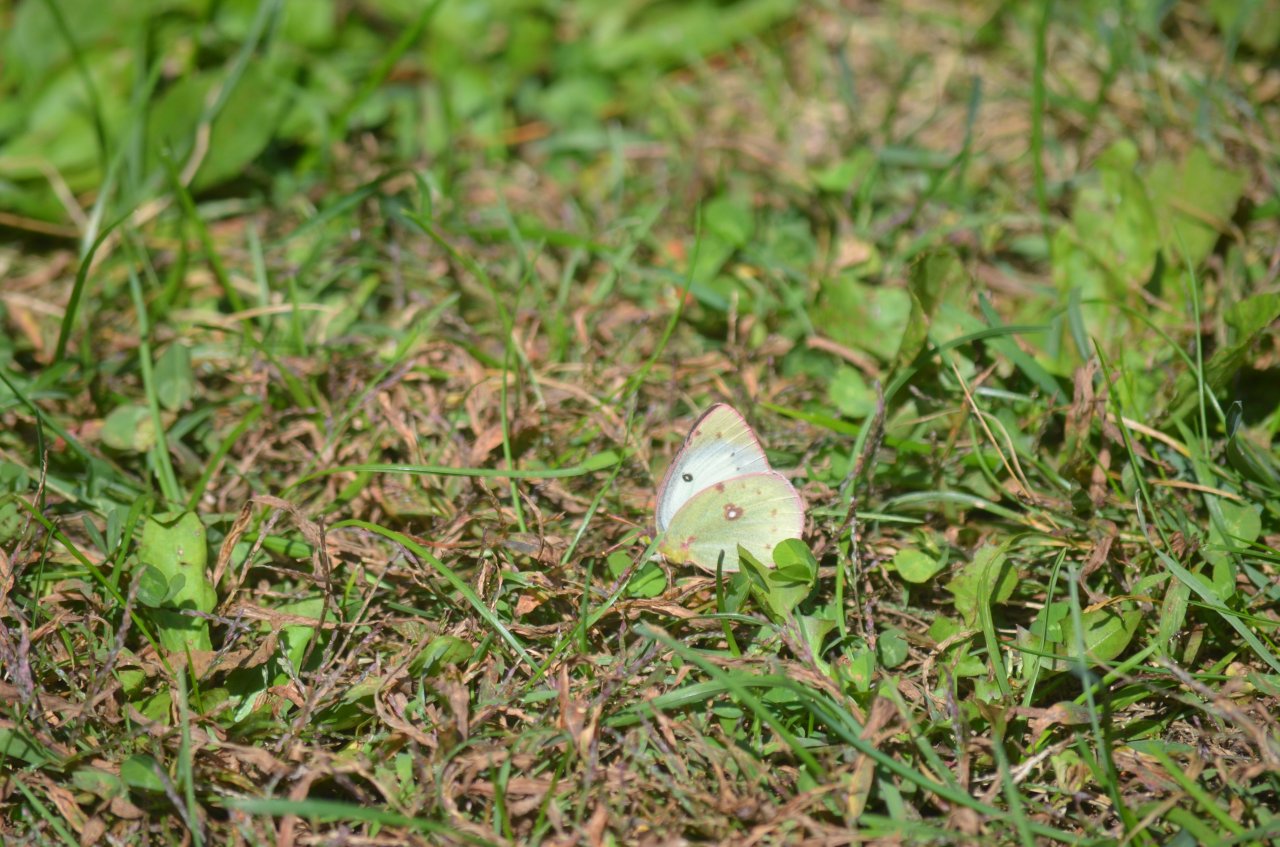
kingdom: Animalia
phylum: Arthropoda
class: Insecta
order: Lepidoptera
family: Pieridae
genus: Colias
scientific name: Colias philodice
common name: Clouded Sulphur
